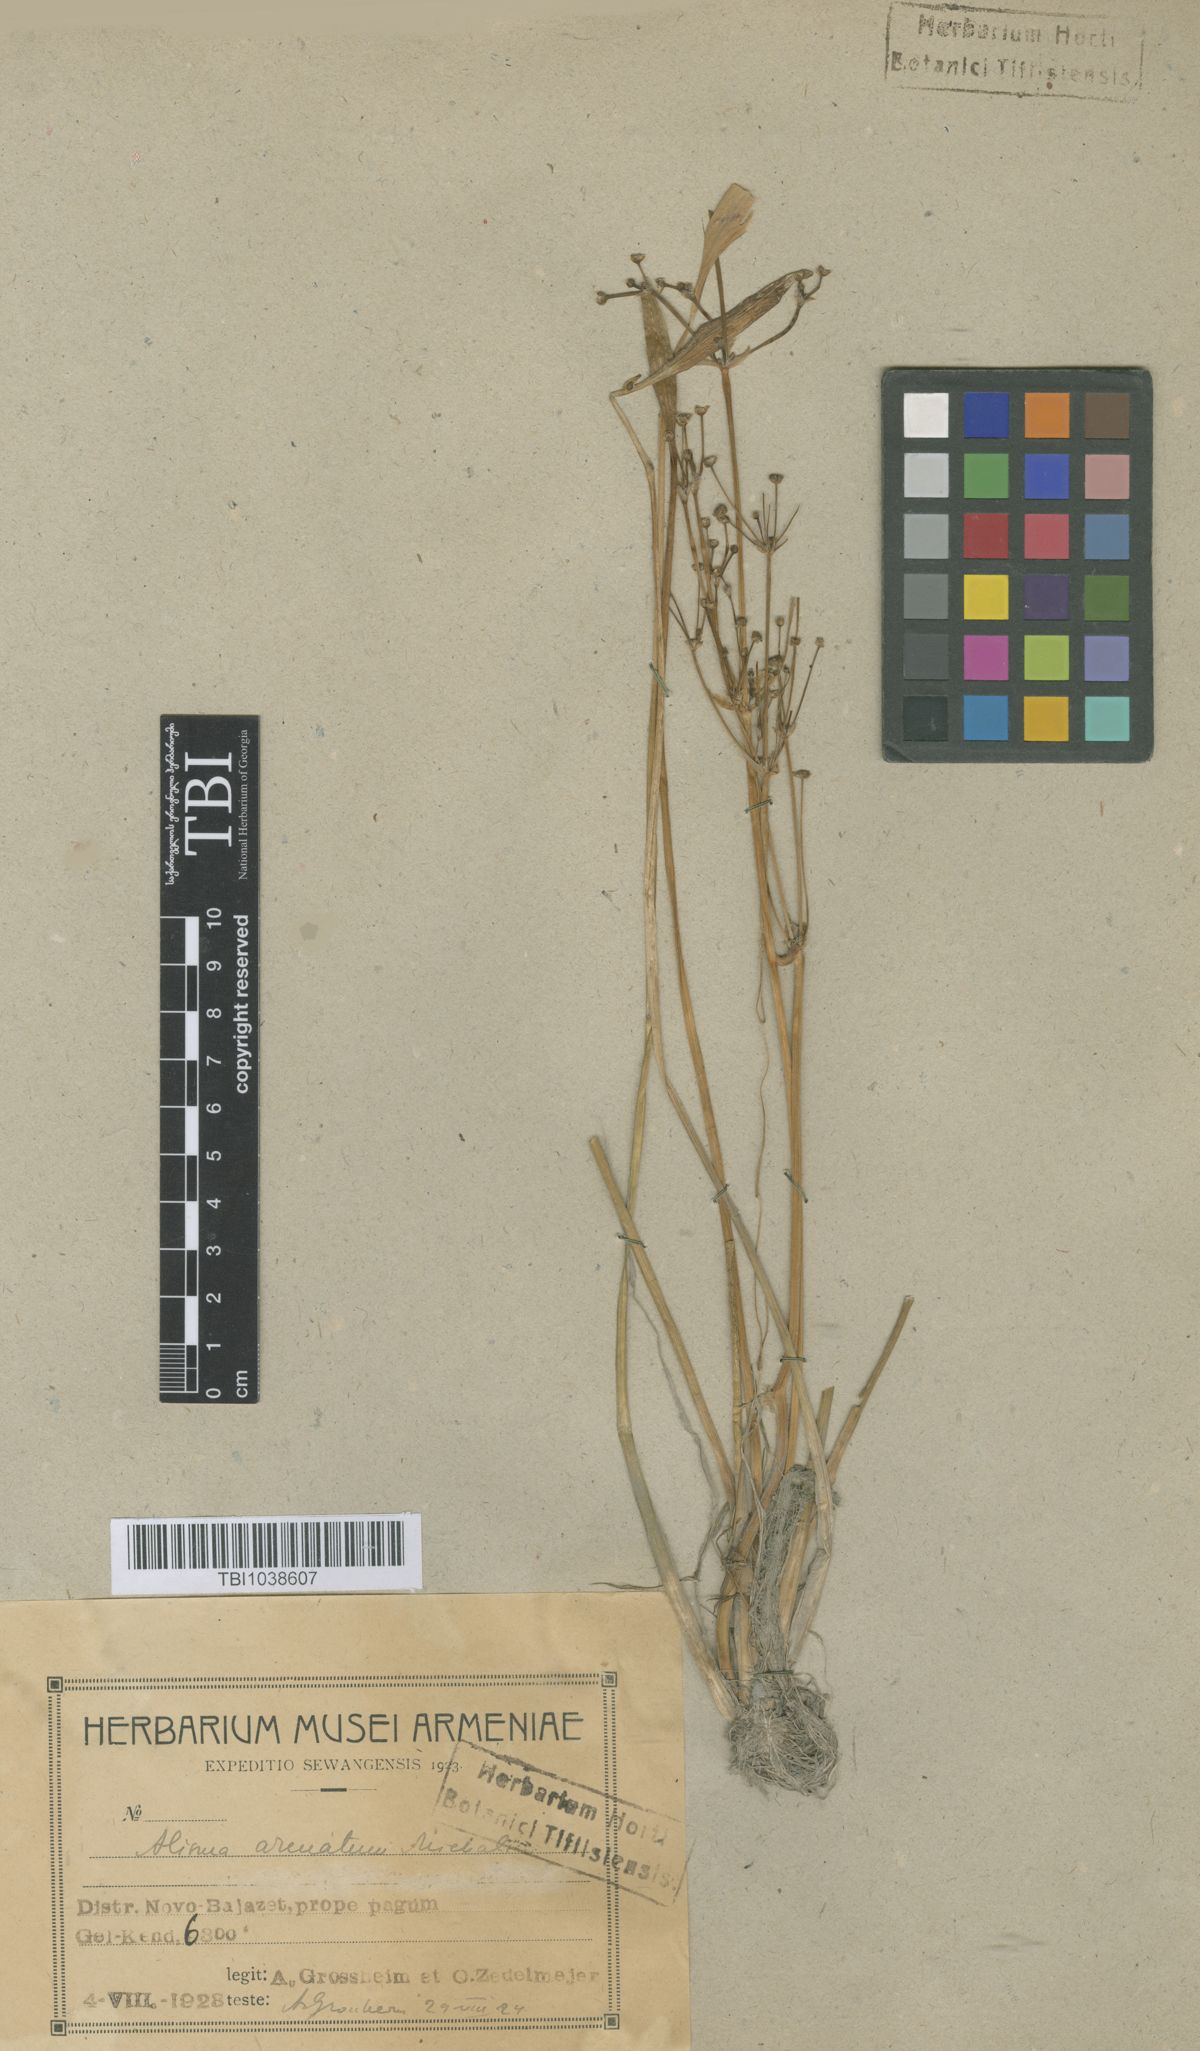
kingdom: Plantae
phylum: Tracheophyta
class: Liliopsida
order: Alismatales
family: Alismataceae
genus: Alisma
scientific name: Alisma gramineum
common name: Ribbon-leaved water-plantain
